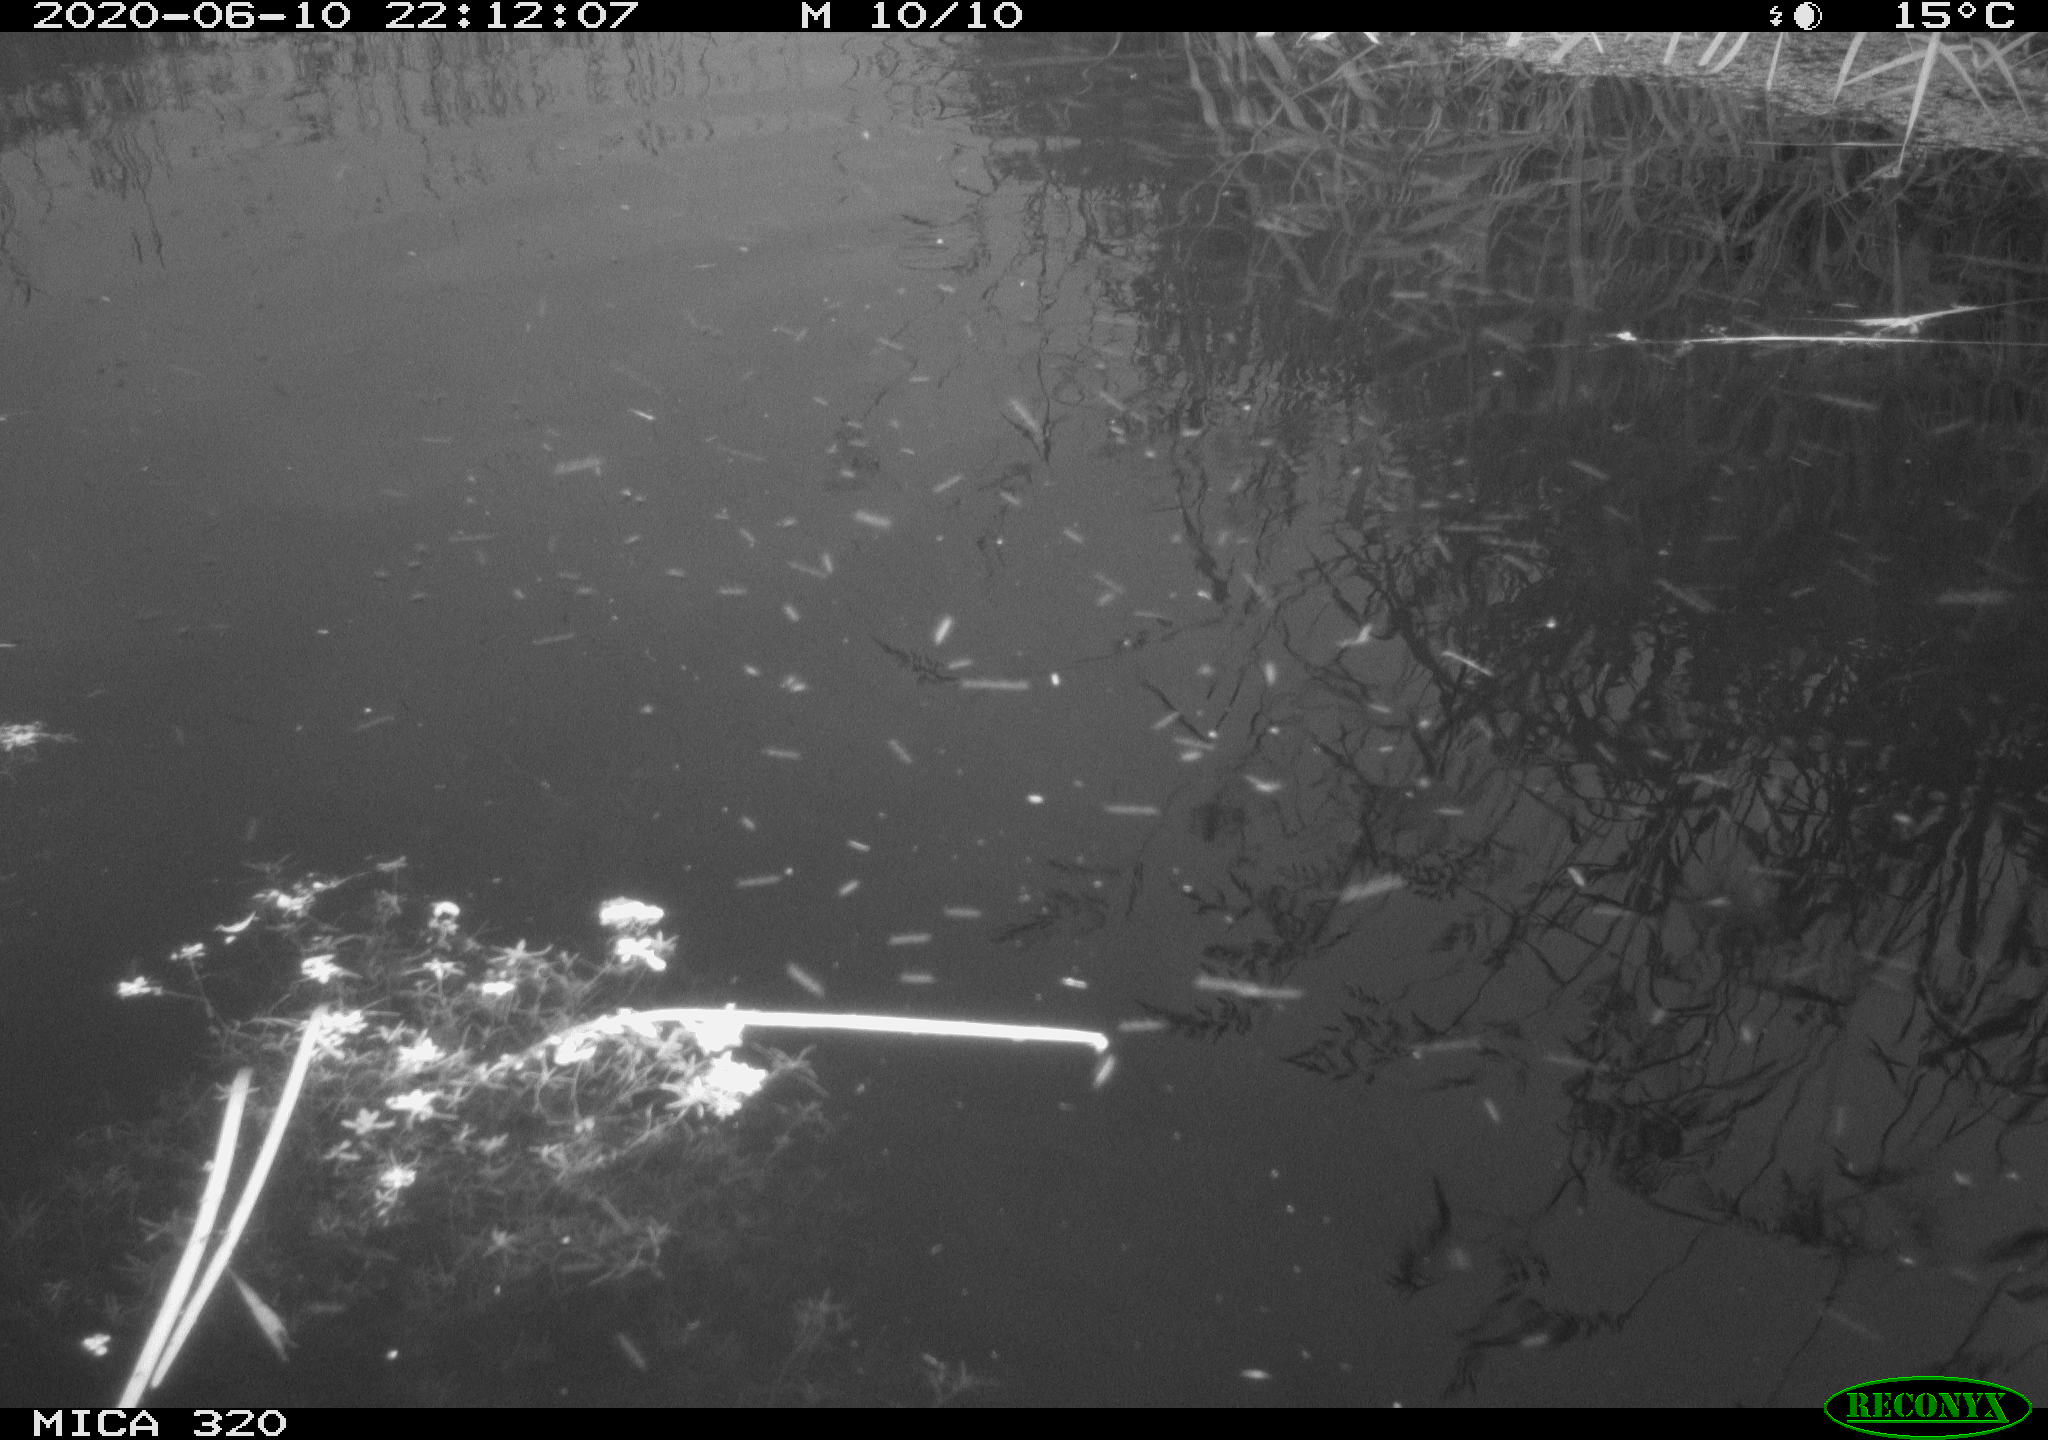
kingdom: Animalia
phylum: Chordata
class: Aves
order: Anseriformes
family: Anatidae
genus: Anas
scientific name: Anas platyrhynchos
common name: Mallard
